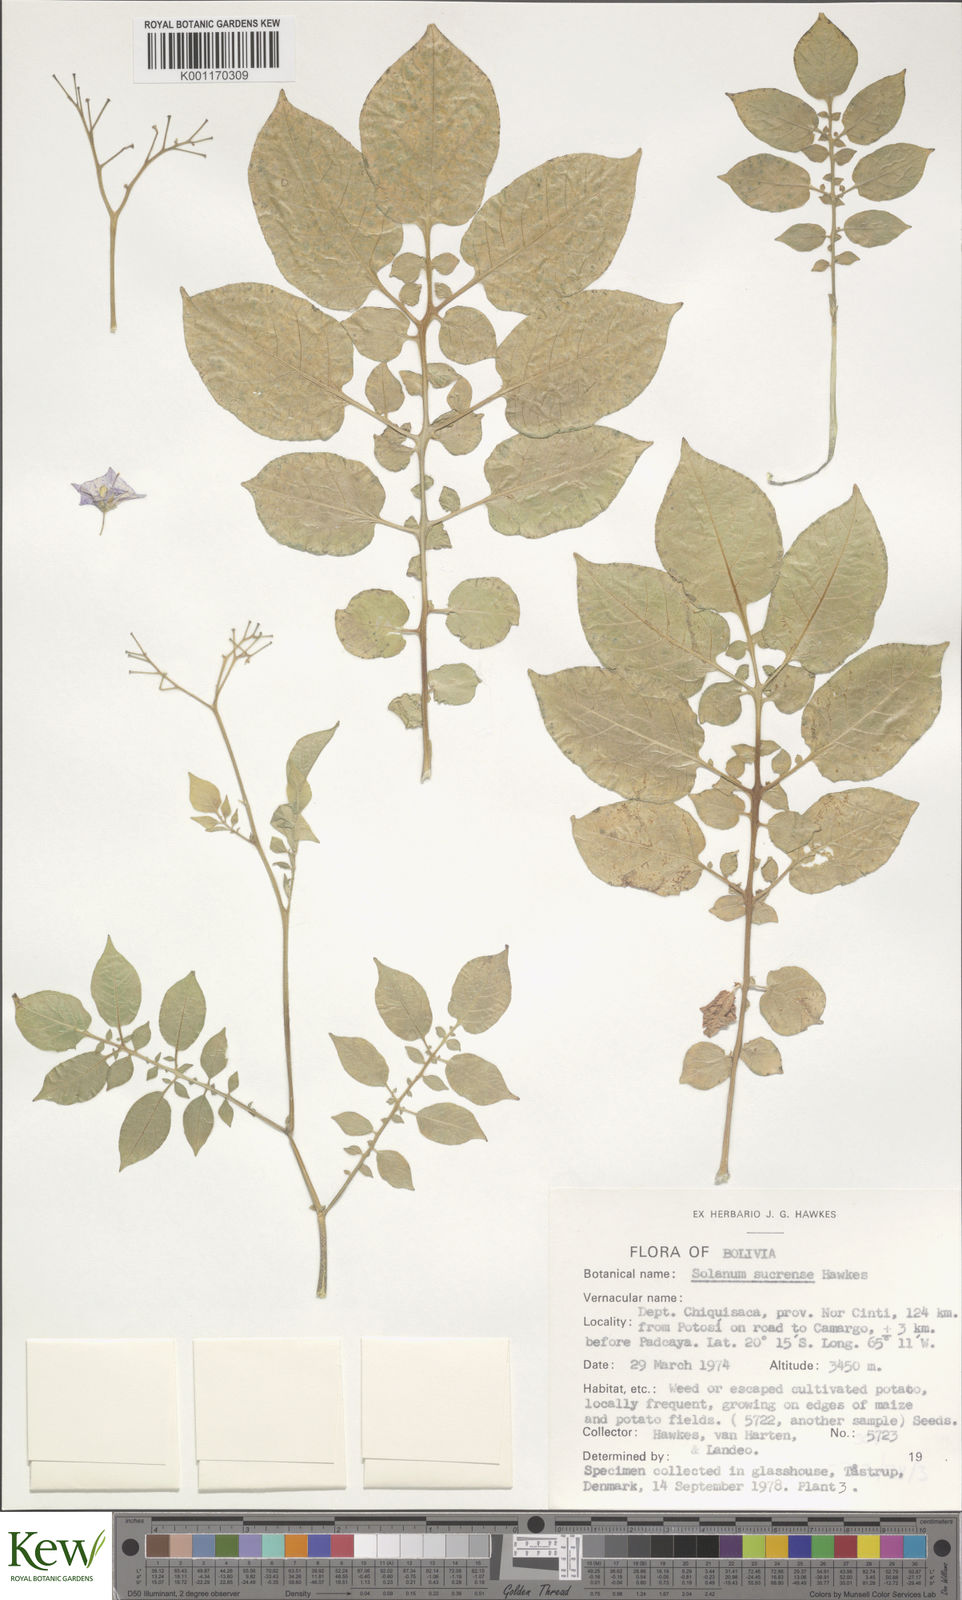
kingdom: Plantae
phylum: Tracheophyta
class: Magnoliopsida
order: Solanales
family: Solanaceae
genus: Solanum
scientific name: Solanum brevicaule
